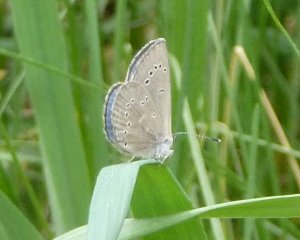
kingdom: Animalia
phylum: Arthropoda
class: Insecta
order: Lepidoptera
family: Lycaenidae
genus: Glaucopsyche
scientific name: Glaucopsyche lygdamus
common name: Silvery Blue
